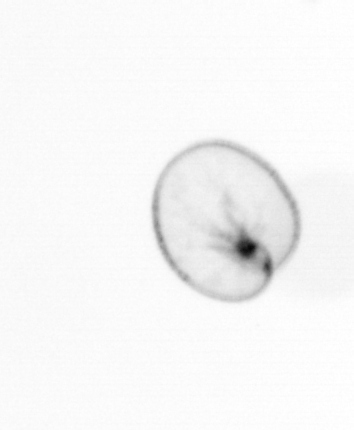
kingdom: Chromista
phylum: Myzozoa
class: Dinophyceae
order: Noctilucales
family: Noctilucaceae
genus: Noctiluca
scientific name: Noctiluca scintillans
